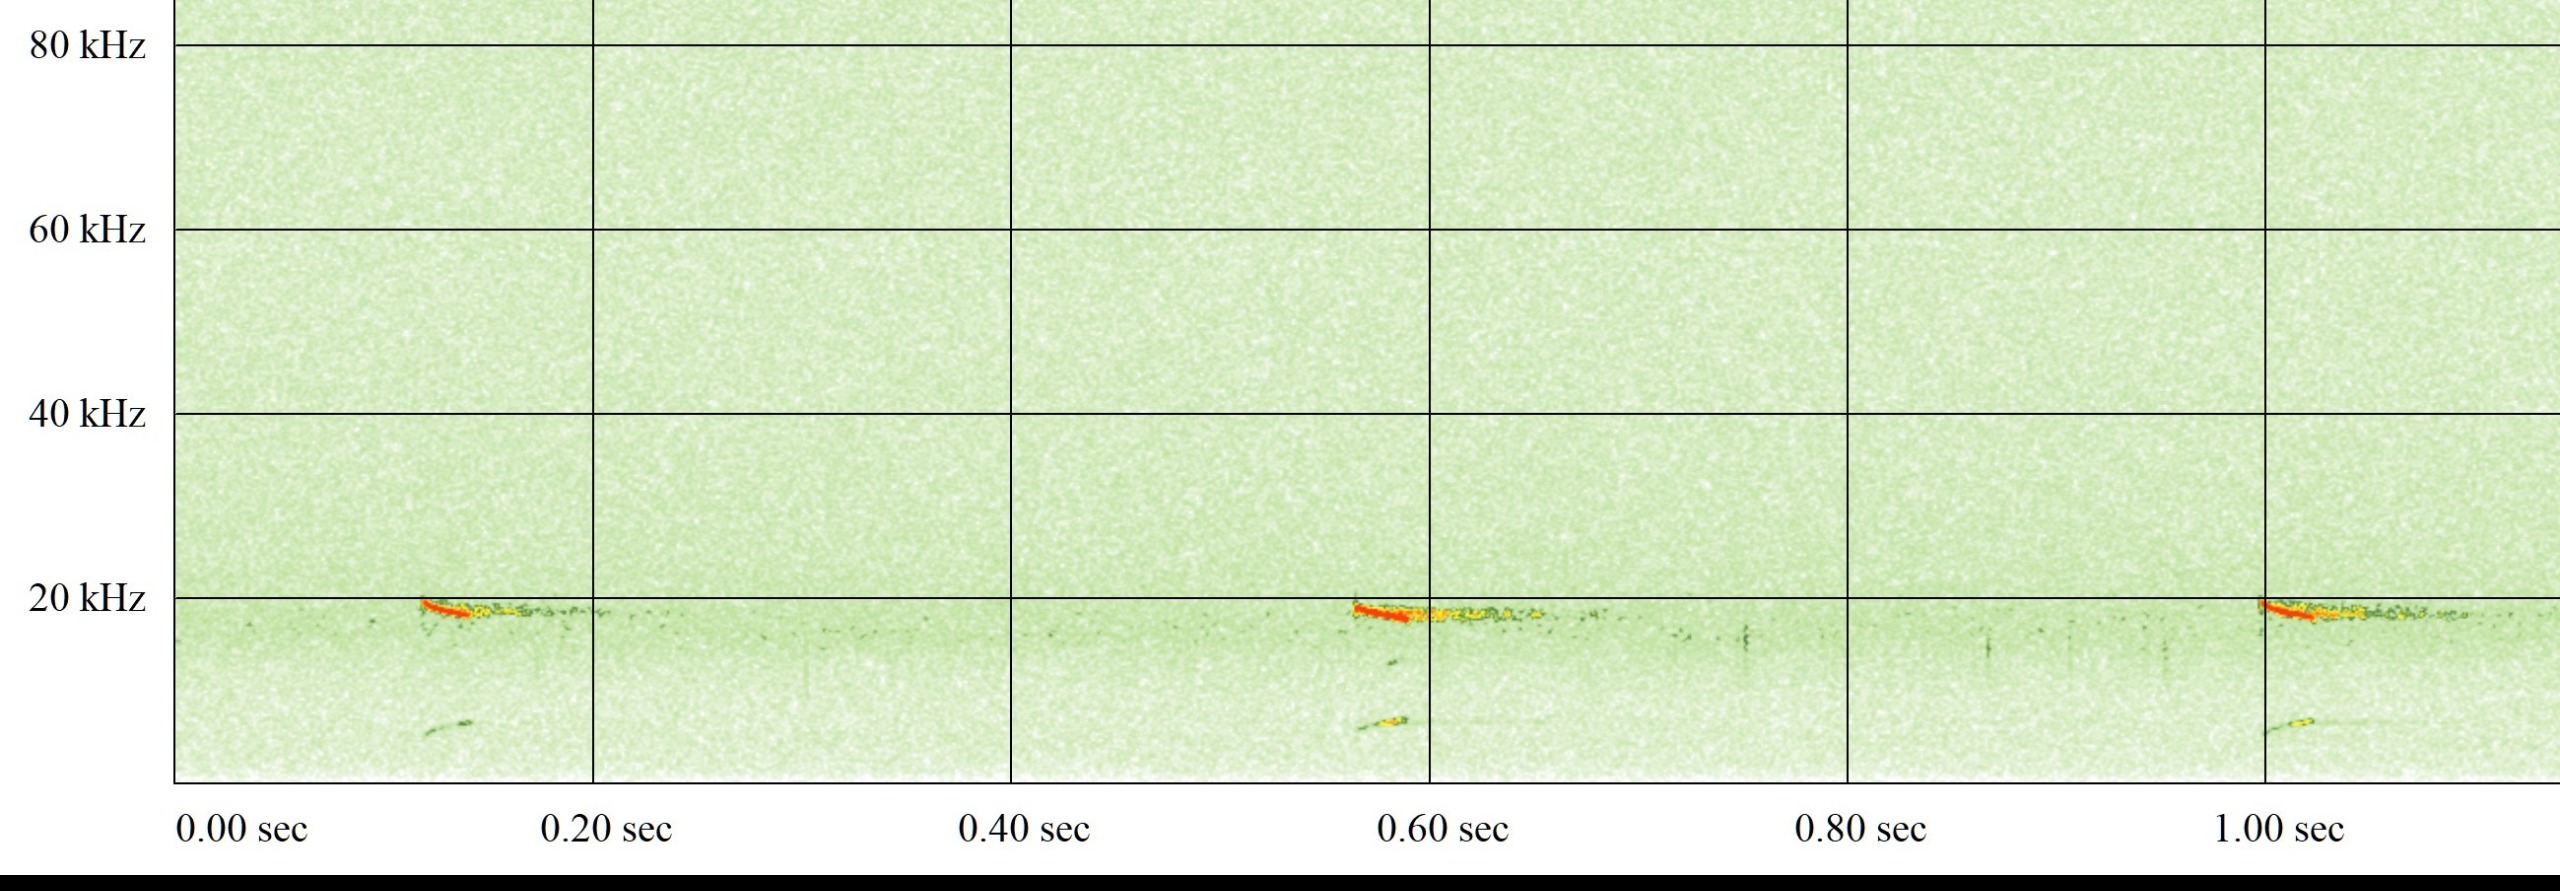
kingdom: Animalia
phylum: Chordata
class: Mammalia
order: Chiroptera
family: Vespertilionidae
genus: Nyctalus
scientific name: Nyctalus noctula
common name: Brunflagermus
